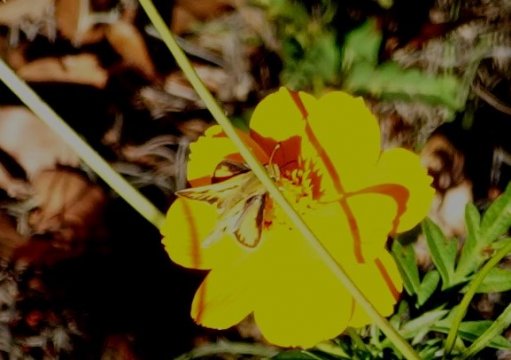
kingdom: Animalia
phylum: Arthropoda
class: Insecta
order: Lepidoptera
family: Hesperiidae
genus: Hylephila
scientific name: Hylephila phyleus
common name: Fiery Skipper
